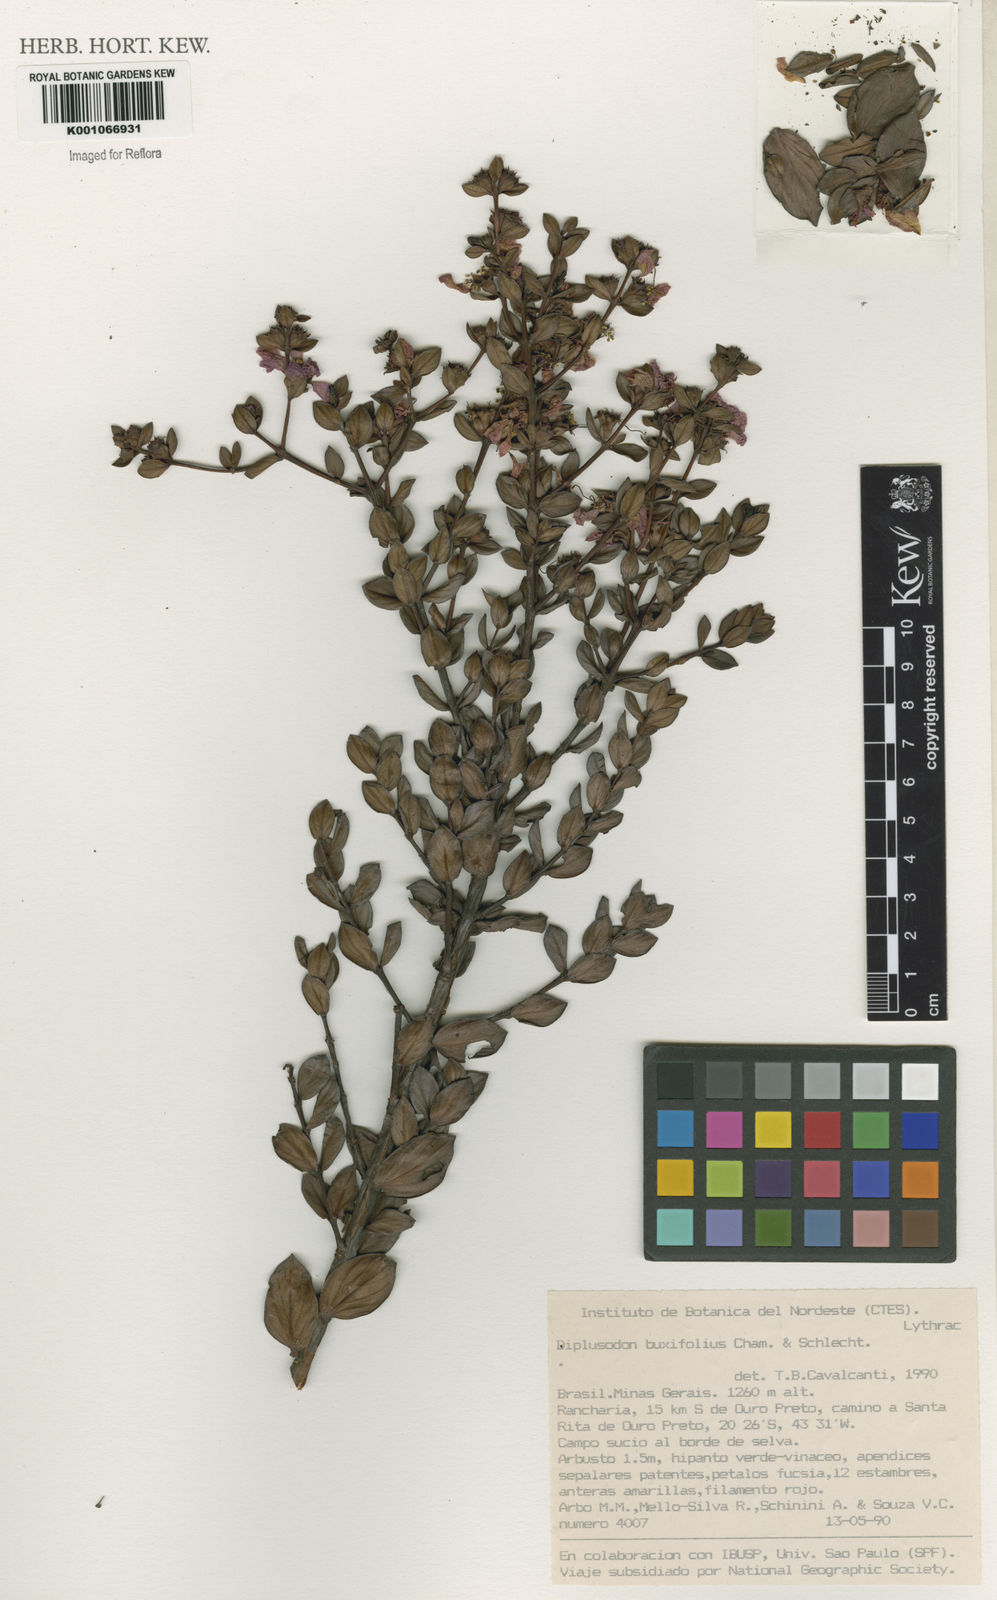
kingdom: Plantae
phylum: Tracheophyta
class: Magnoliopsida
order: Myrtales
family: Lythraceae
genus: Diplusodon
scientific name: Diplusodon buxifolius
